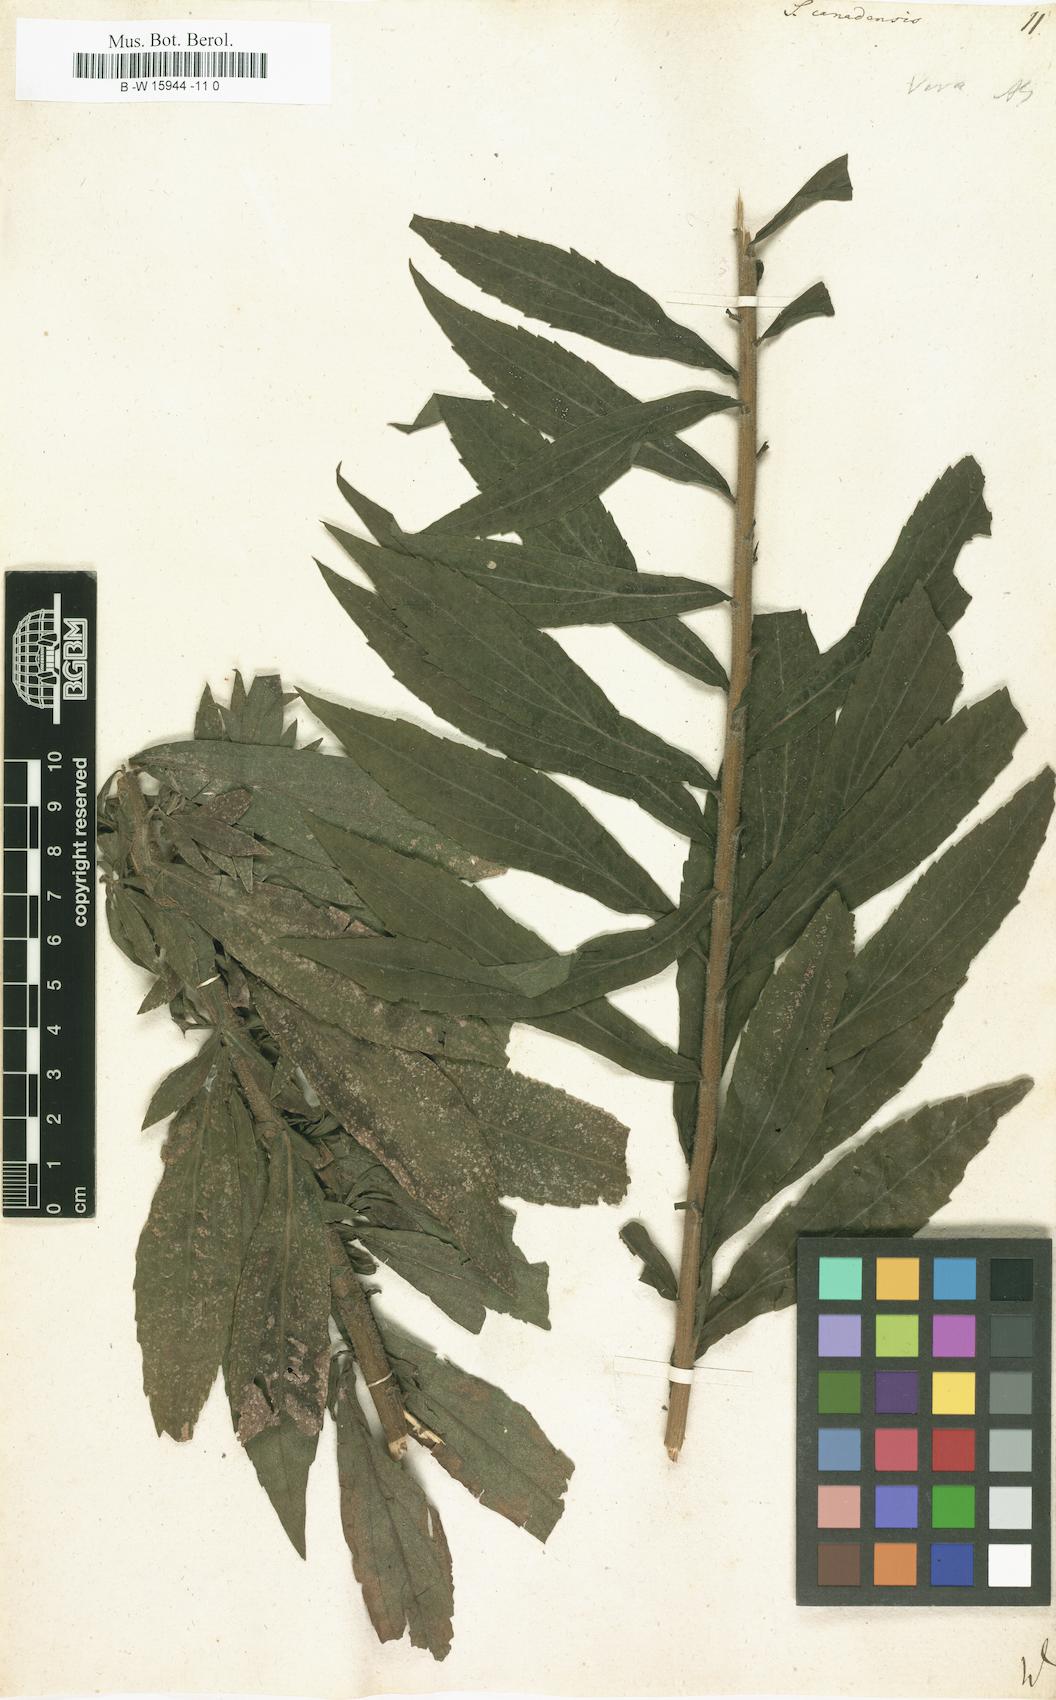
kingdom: Plantae
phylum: Tracheophyta
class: Magnoliopsida
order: Asterales
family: Asteraceae
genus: Solidago
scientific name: Solidago canadensis
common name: Canada goldenrod
